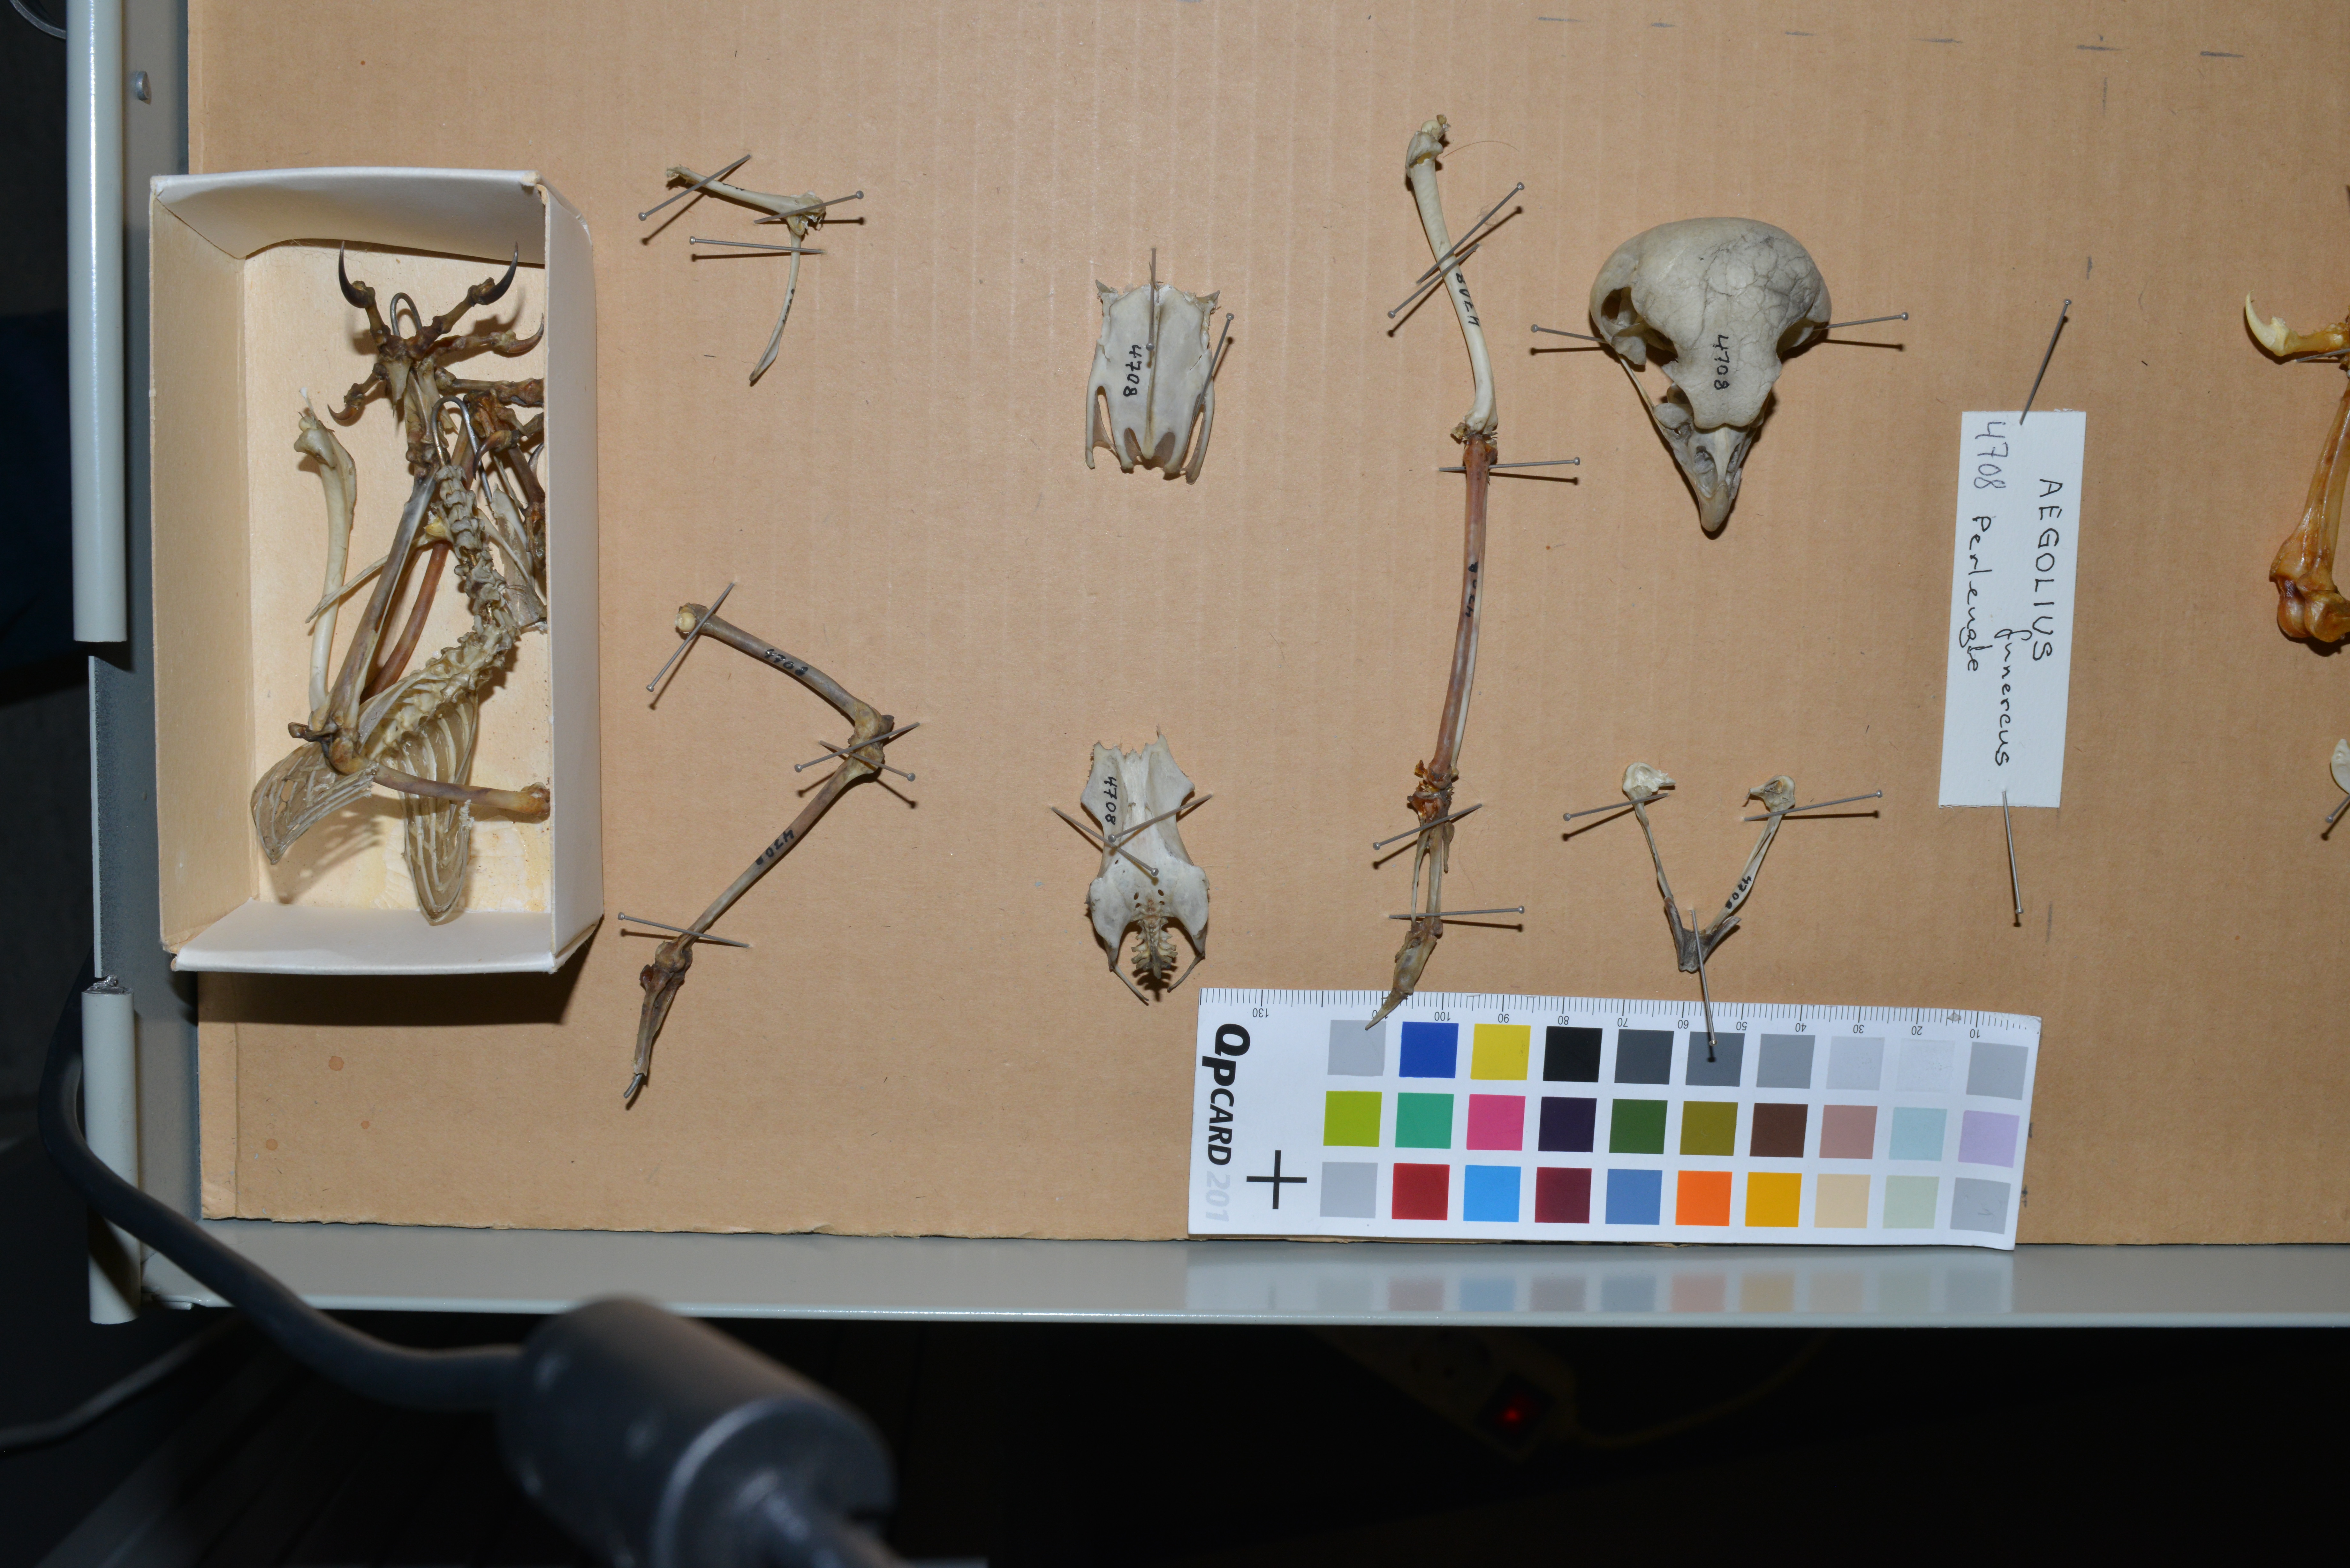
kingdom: Animalia
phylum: Chordata
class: Aves
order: Strigiformes
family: Strigidae
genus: Aegolius
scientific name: Aegolius funereus
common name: Boreal owl
